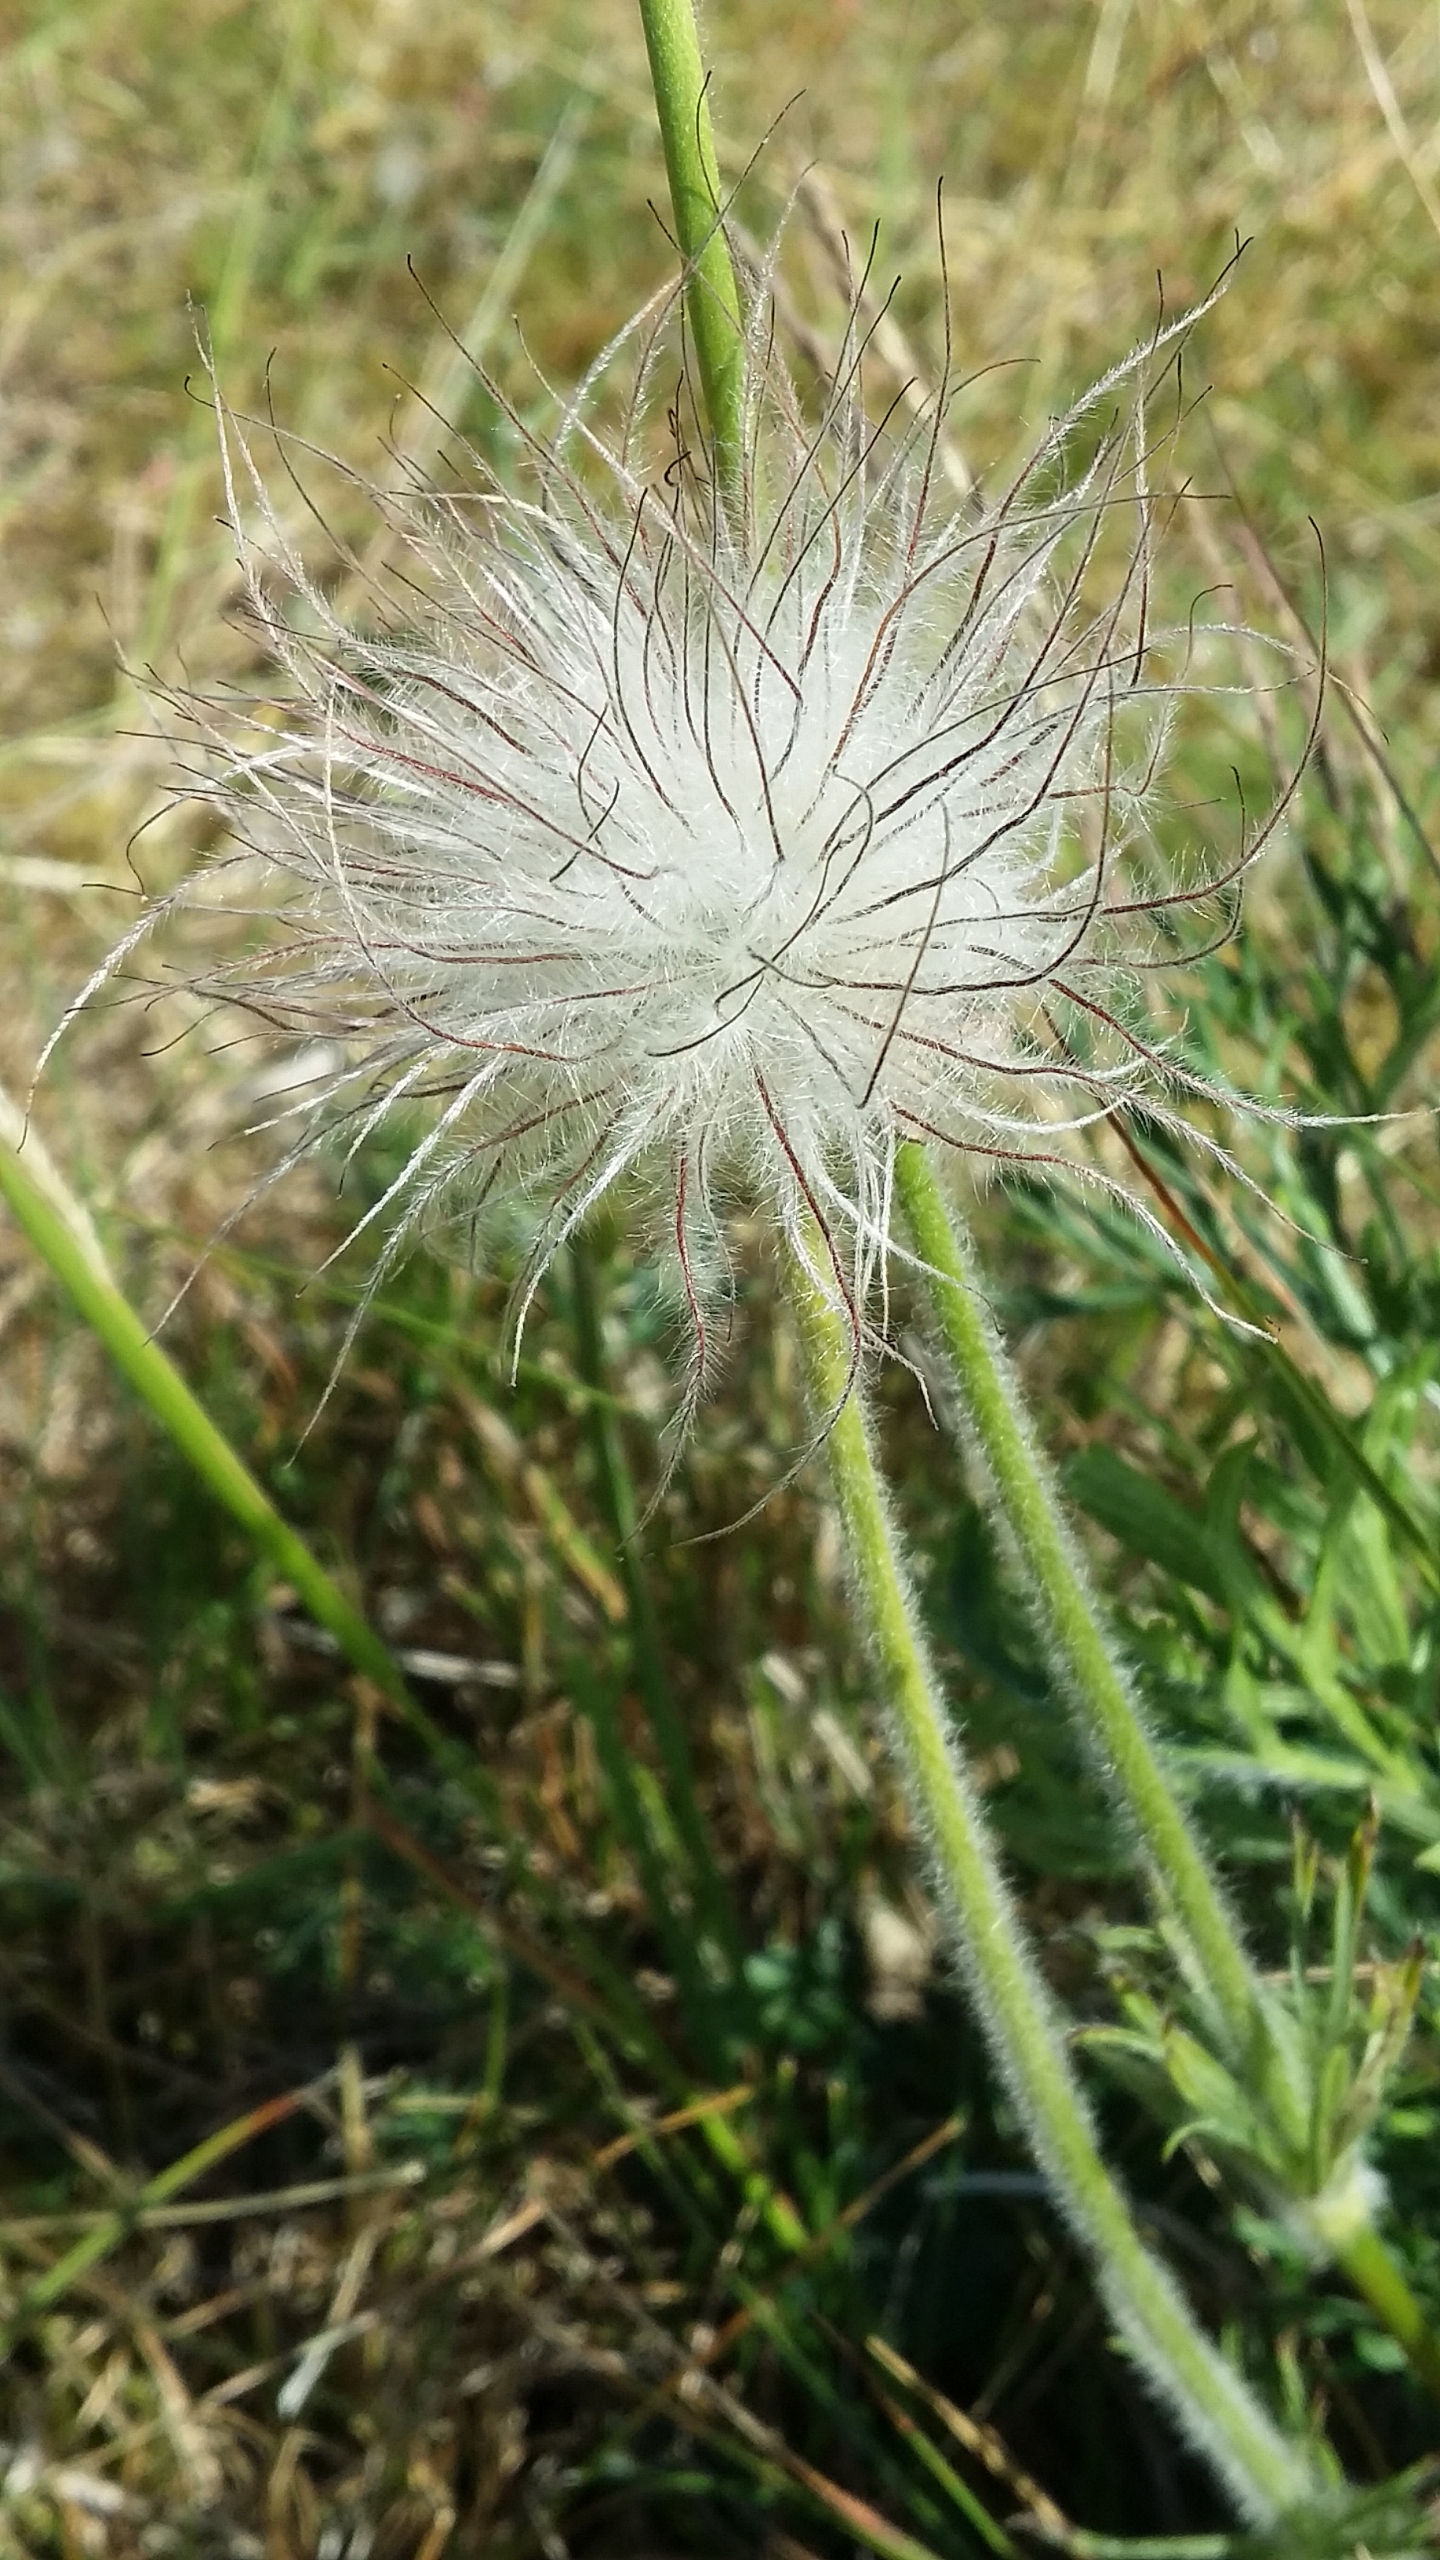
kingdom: Plantae
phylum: Tracheophyta
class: Magnoliopsida
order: Ranunculales
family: Ranunculaceae
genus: Pulsatilla
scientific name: Pulsatilla vulgaris
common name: Opret kobjælde
